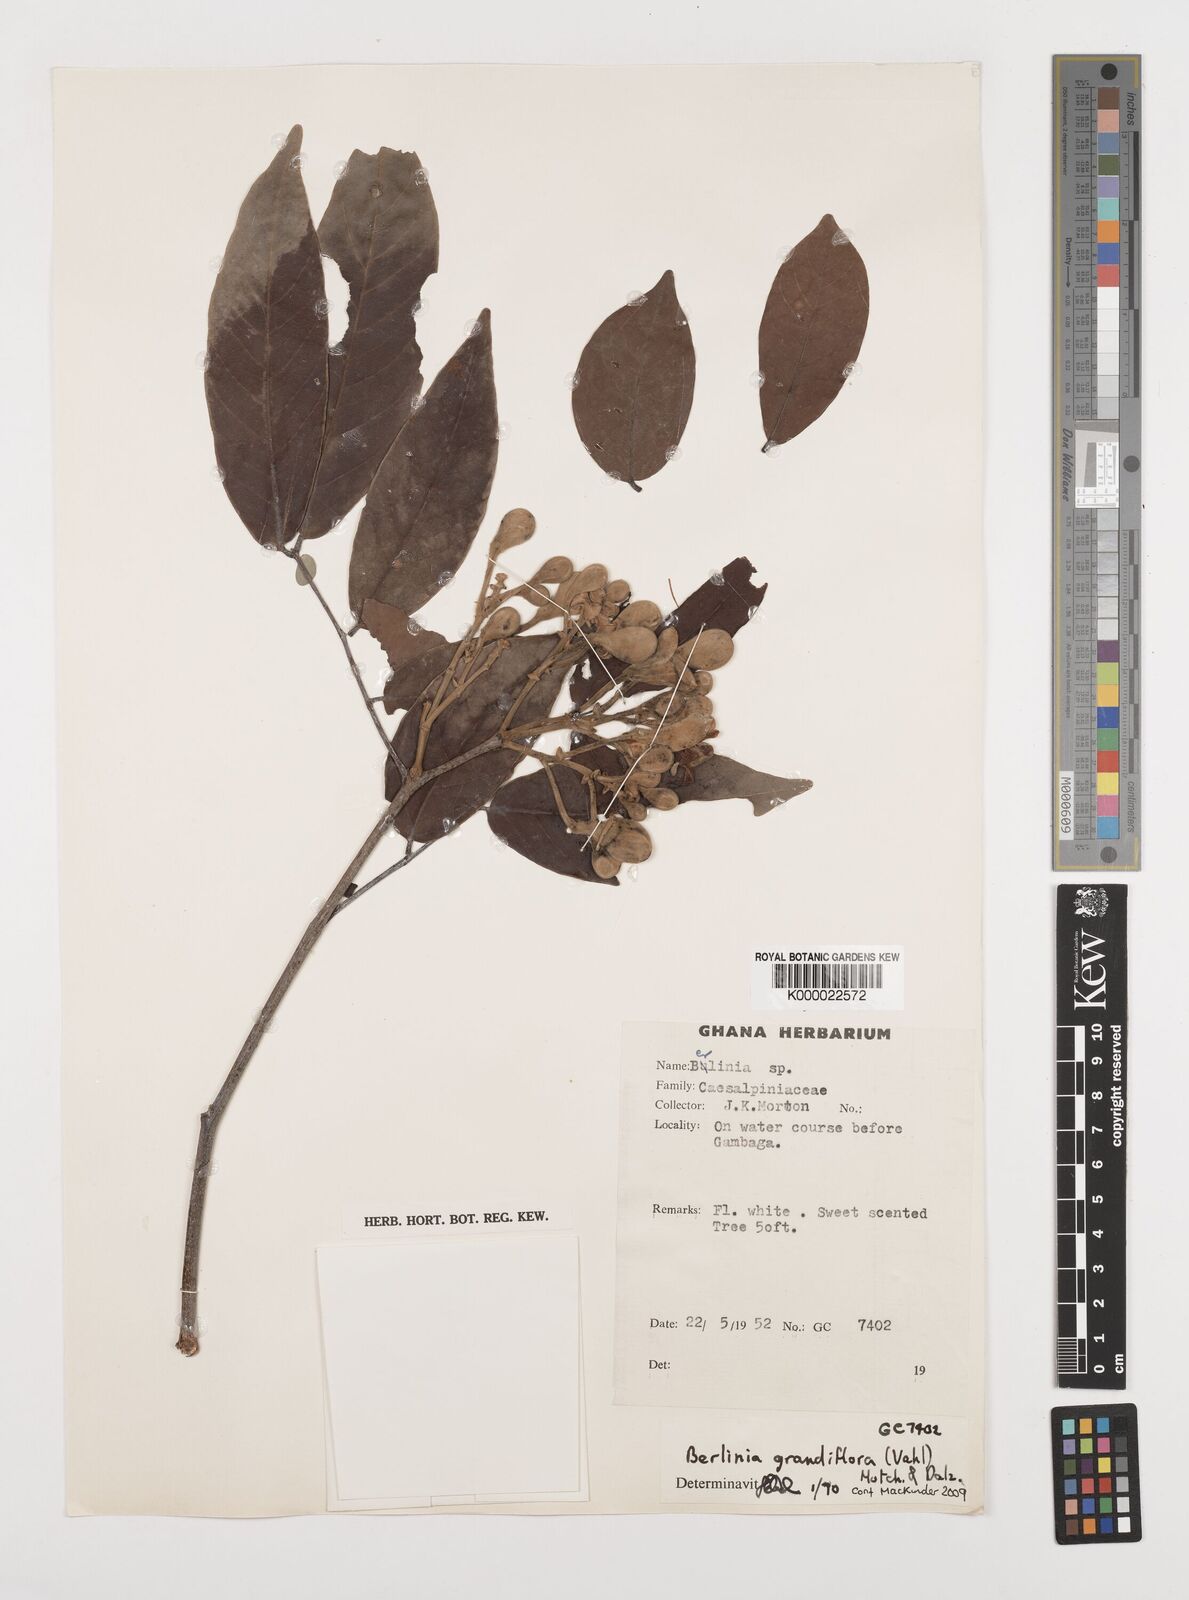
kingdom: Plantae
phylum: Tracheophyta
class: Magnoliopsida
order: Fabales
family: Fabaceae
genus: Berlinia
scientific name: Berlinia grandiflora
